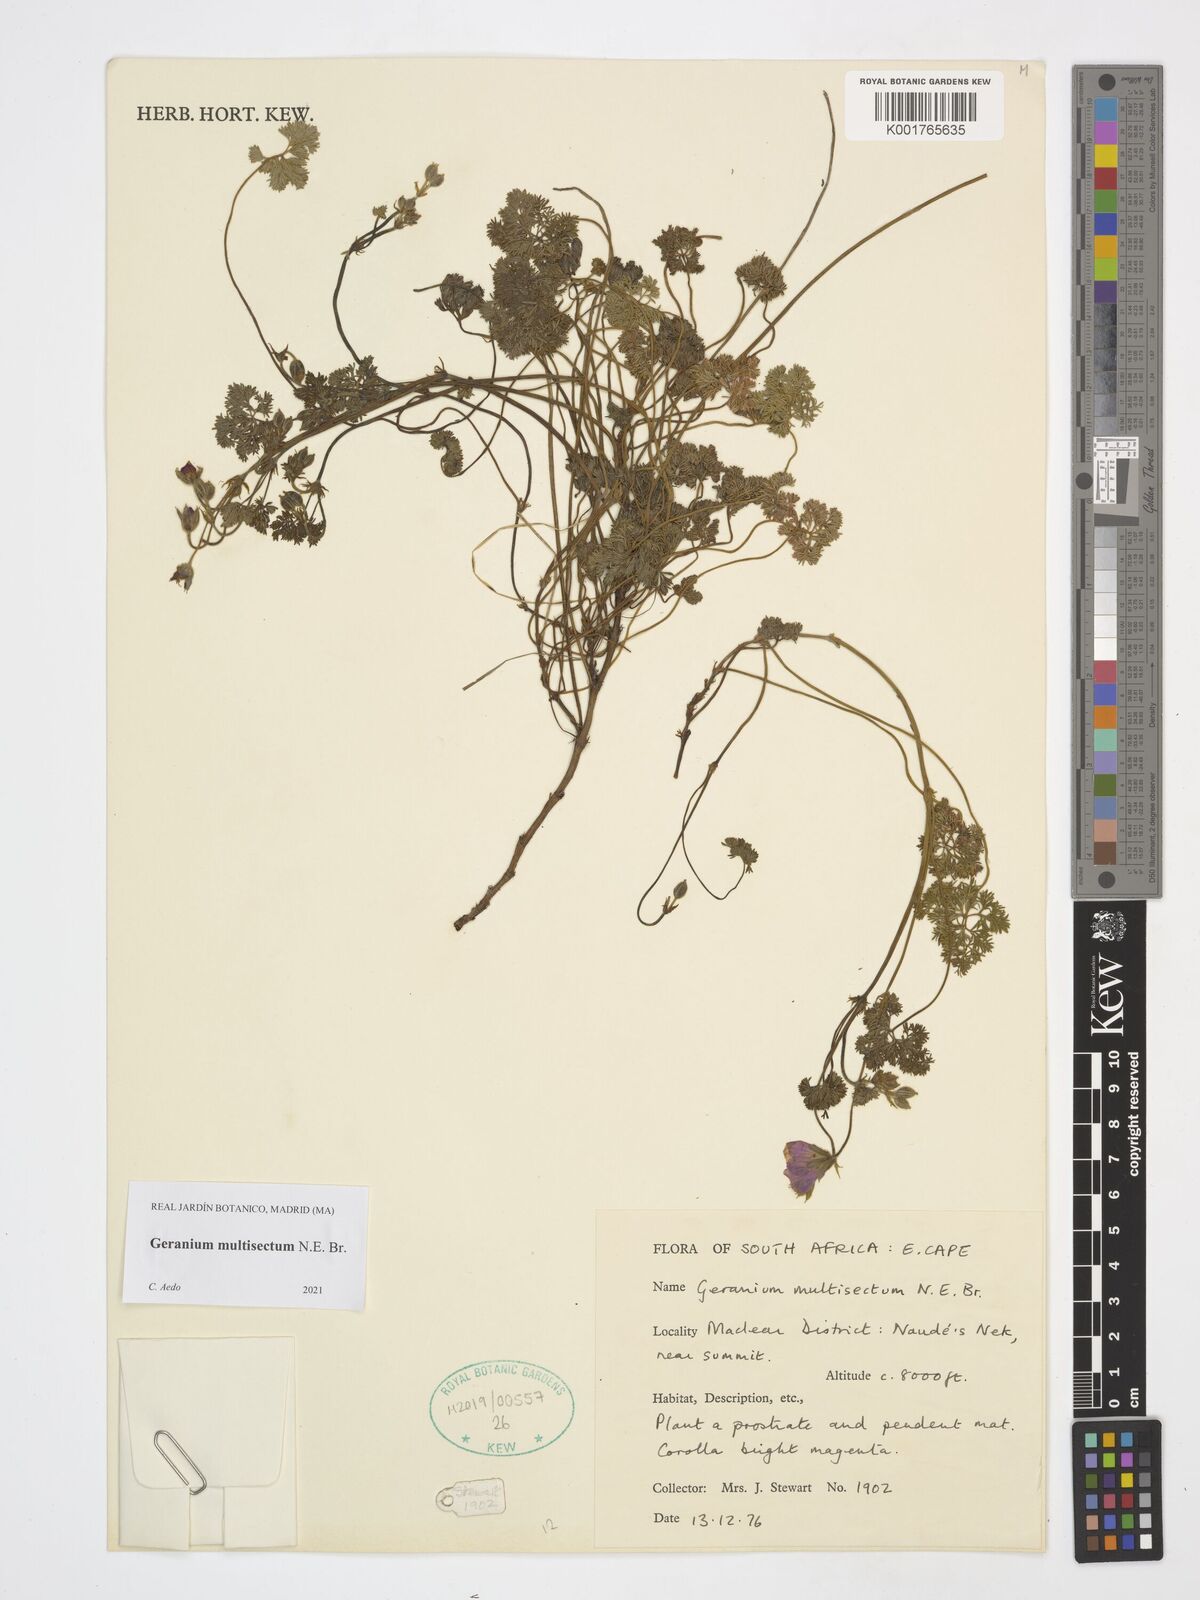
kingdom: Plantae
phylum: Tracheophyta
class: Magnoliopsida
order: Geraniales
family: Geraniaceae
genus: Geranium
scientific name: Geranium multisectum
